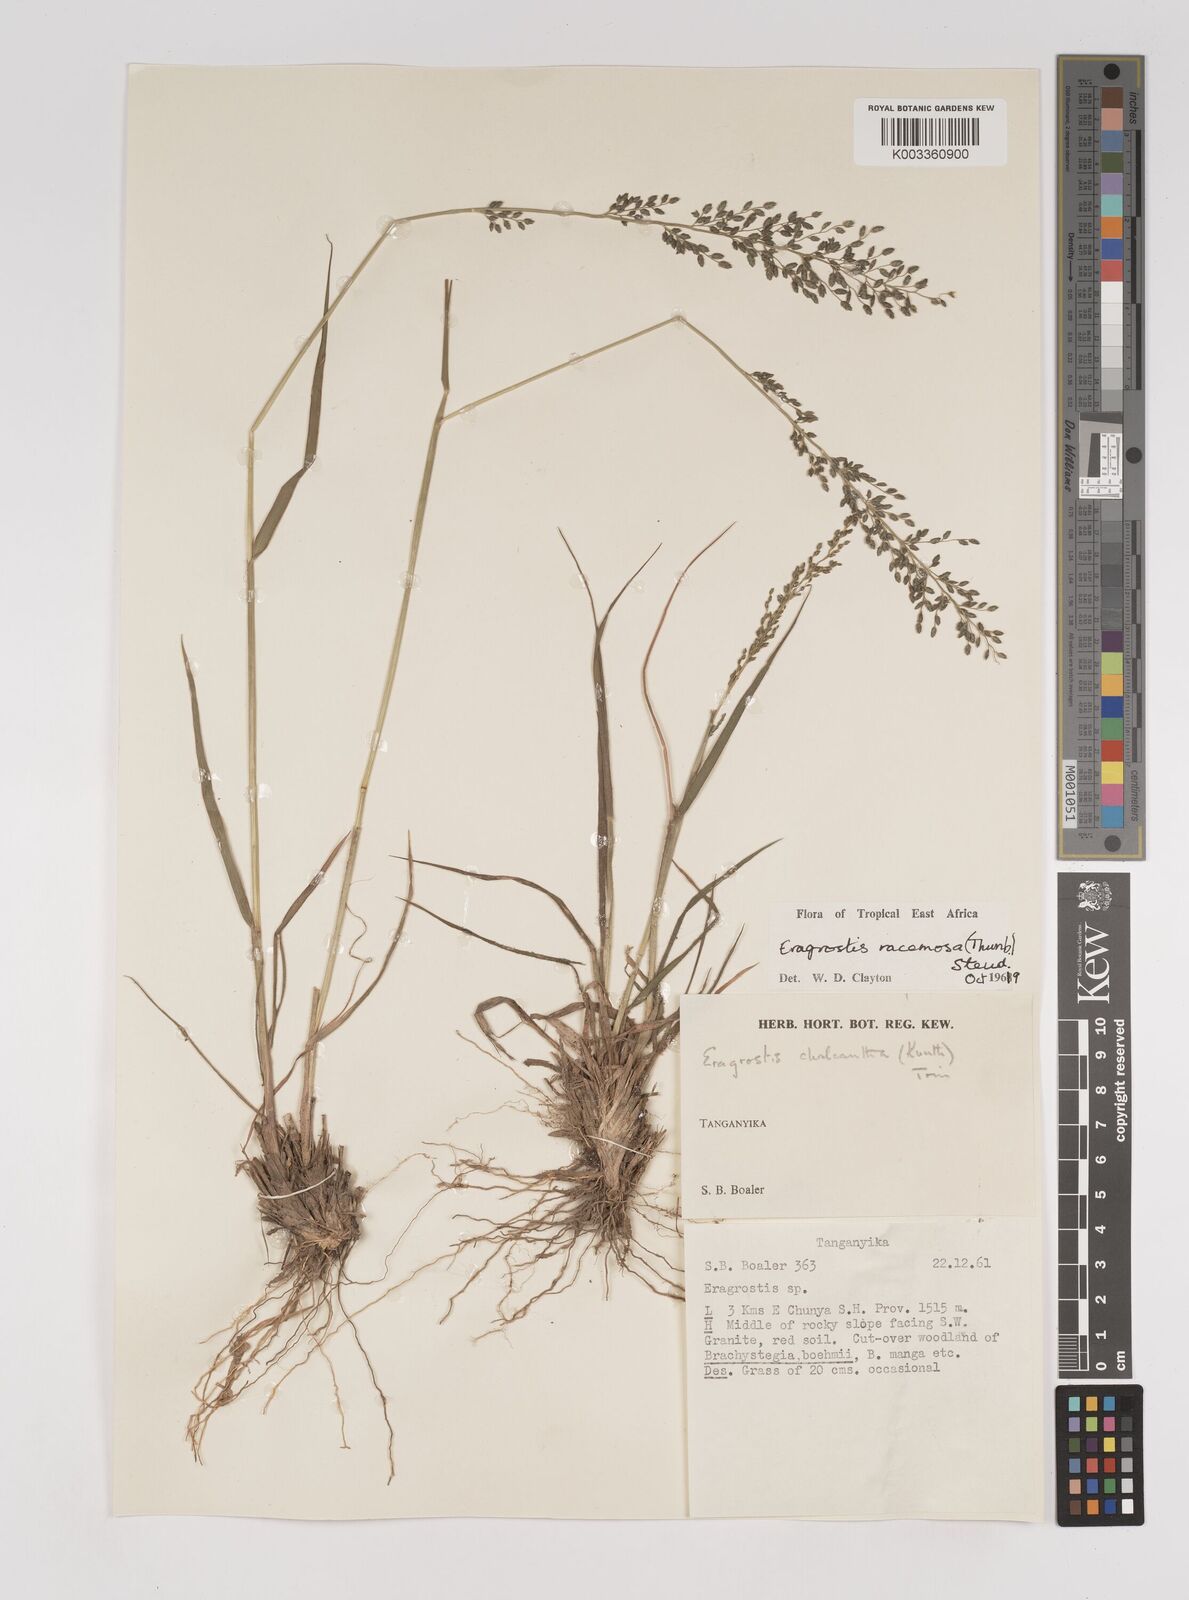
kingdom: Plantae
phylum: Tracheophyta
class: Liliopsida
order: Poales
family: Poaceae
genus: Eragrostis
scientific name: Eragrostis racemosa
